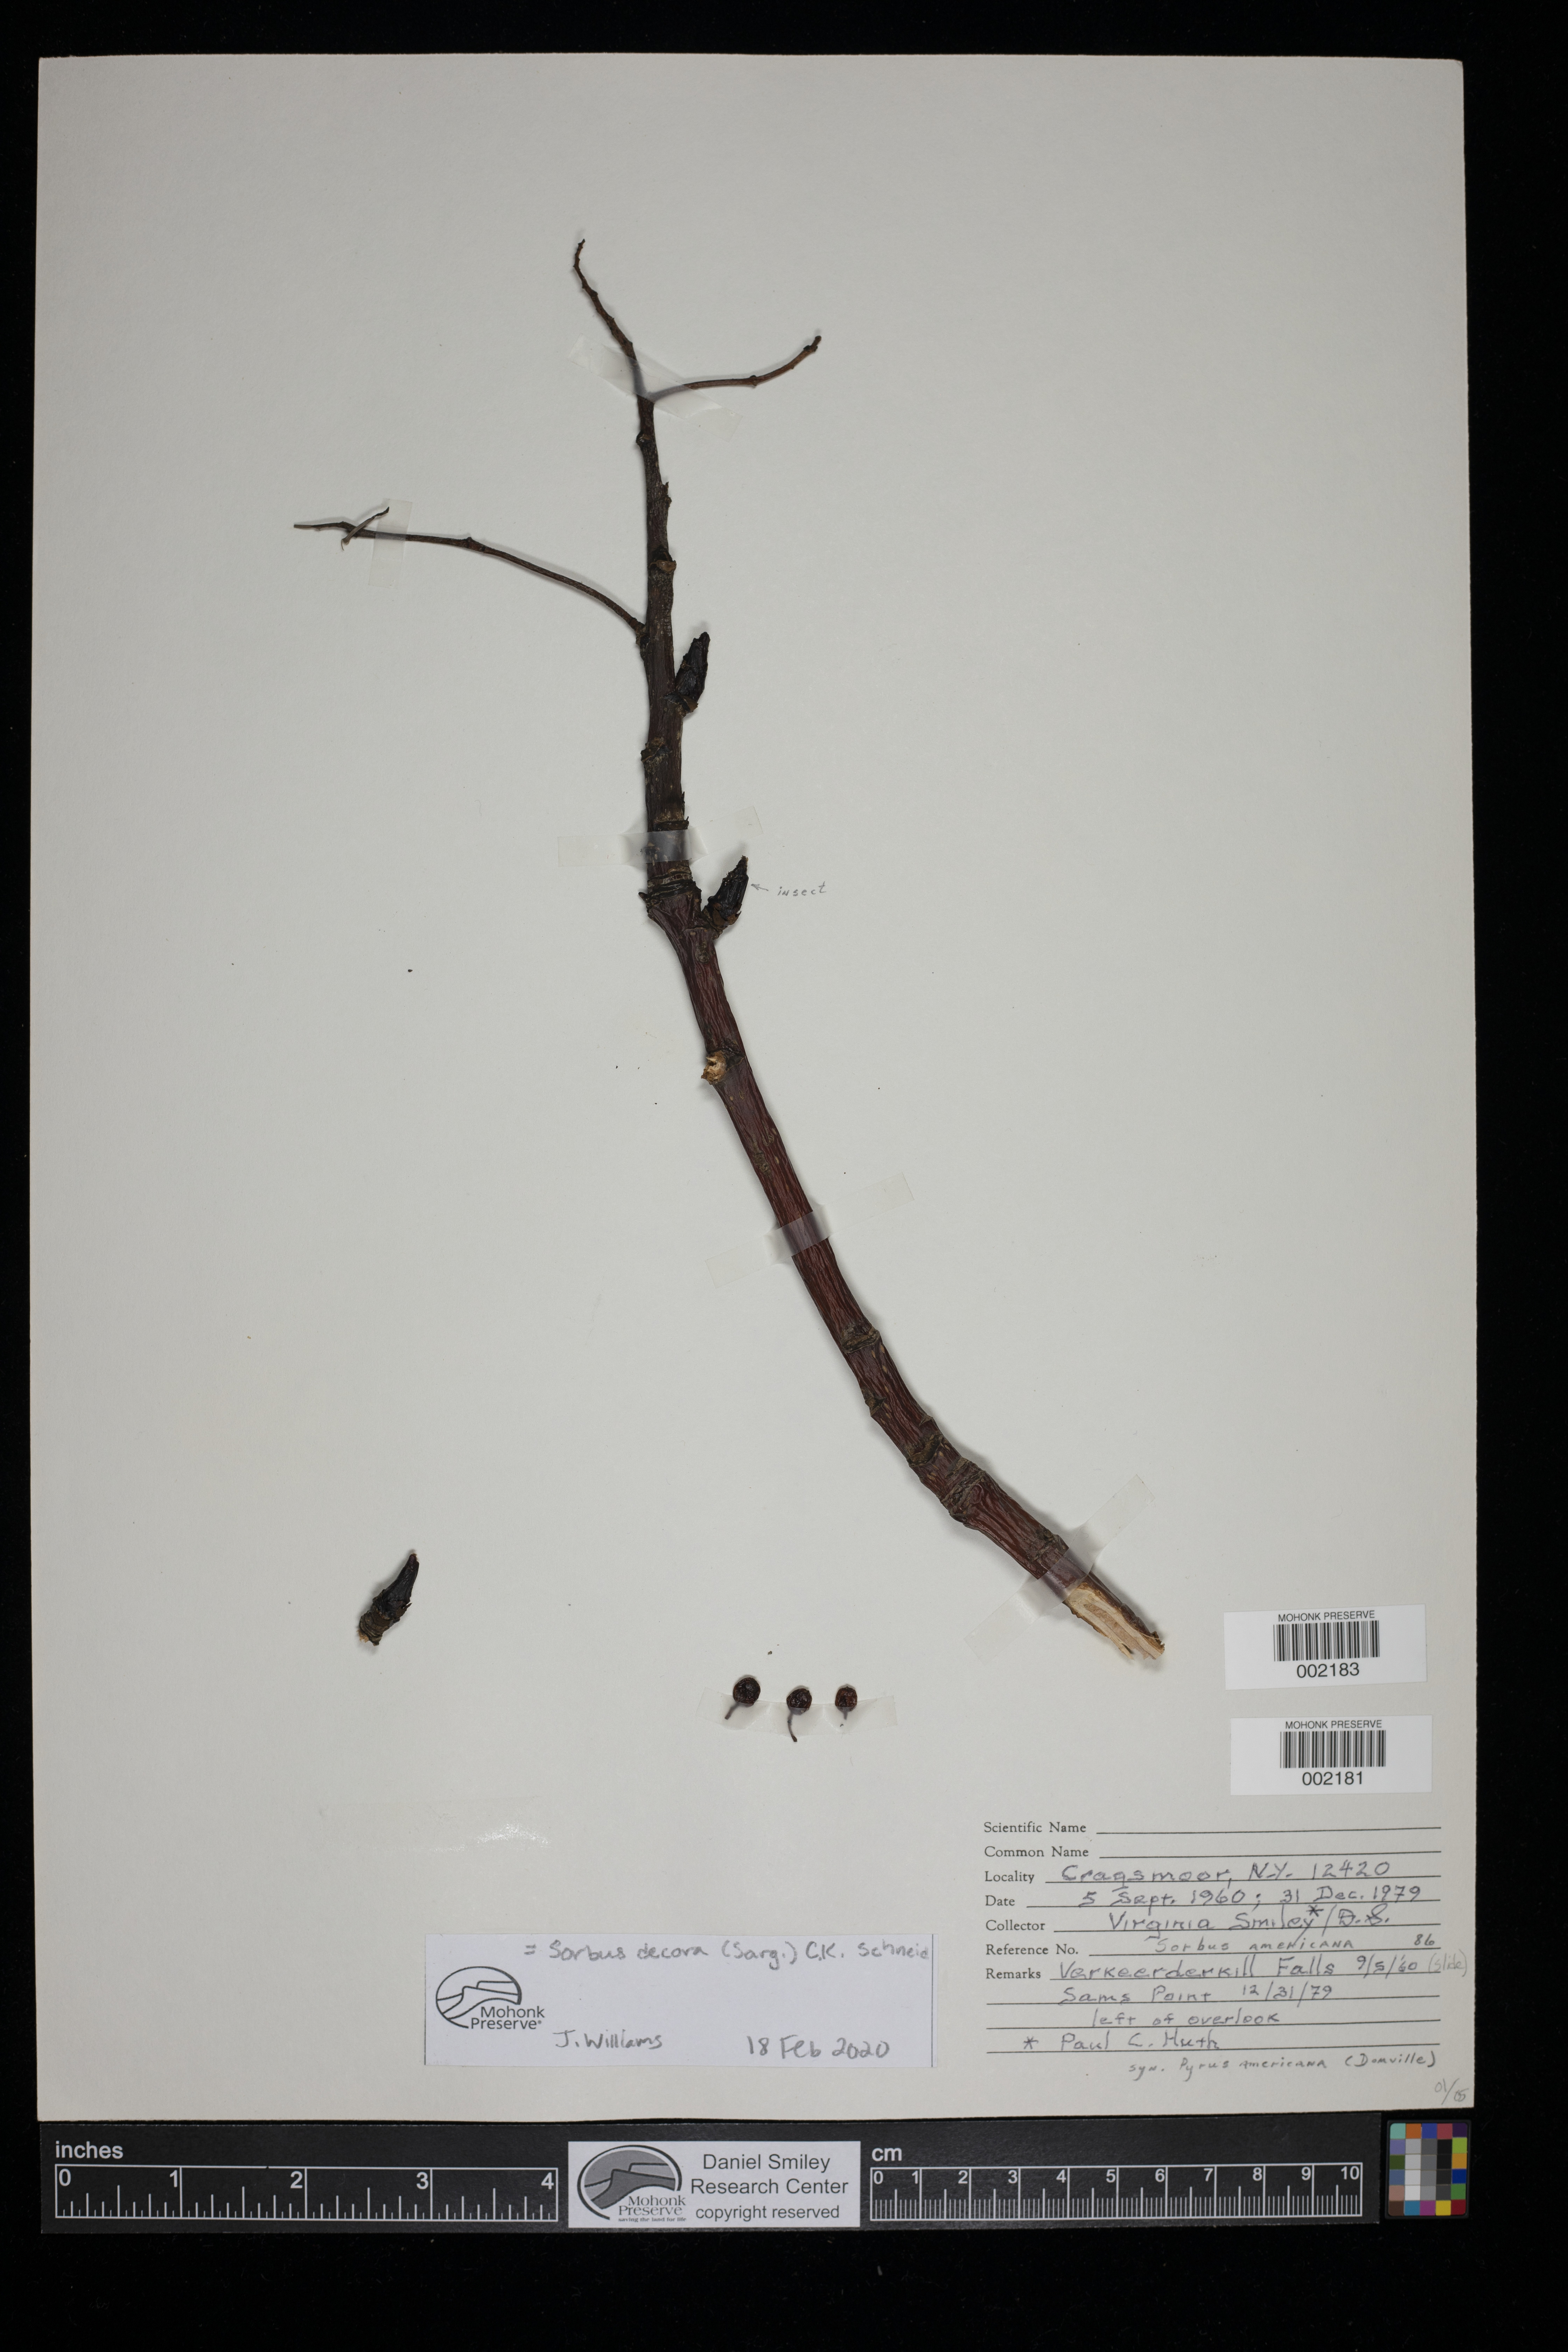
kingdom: Plantae
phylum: Tracheophyta
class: Magnoliopsida
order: Rosales
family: Rosaceae
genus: Sorbus
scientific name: Sorbus decora
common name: Northern mountain-ash
